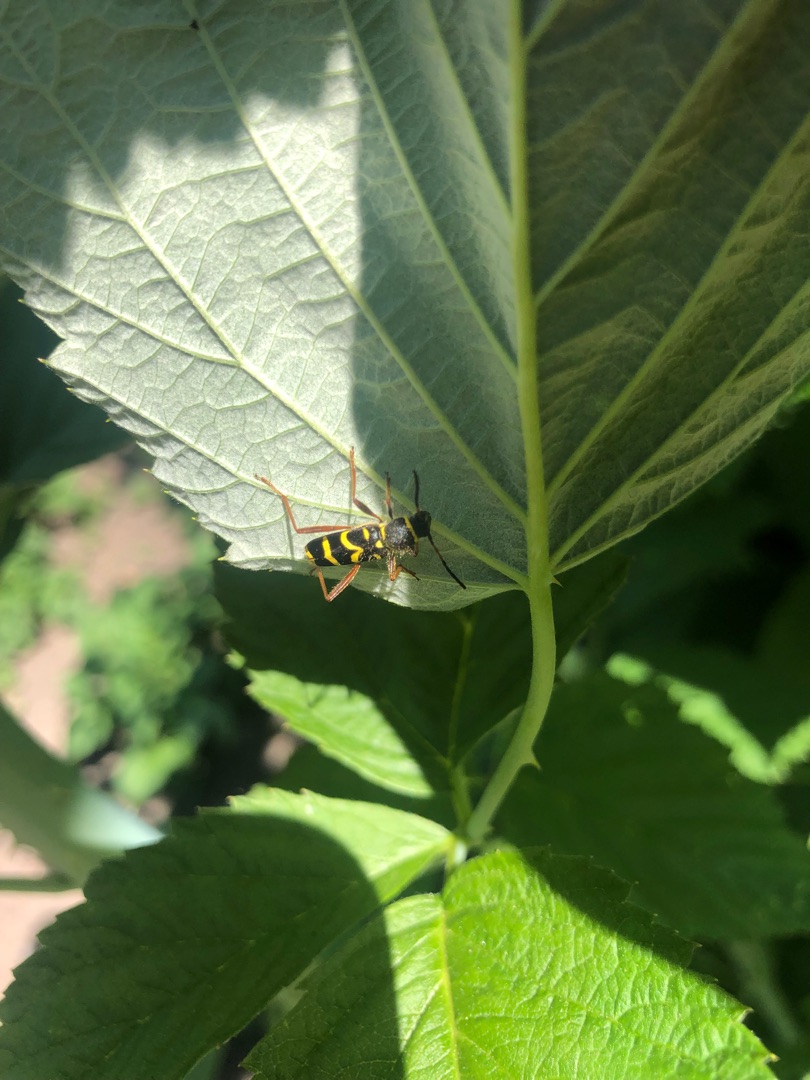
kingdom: Animalia
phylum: Arthropoda
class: Insecta
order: Coleoptera
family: Cerambycidae
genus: Clytus
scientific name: Clytus arietis
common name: Lille hvepsebuk
